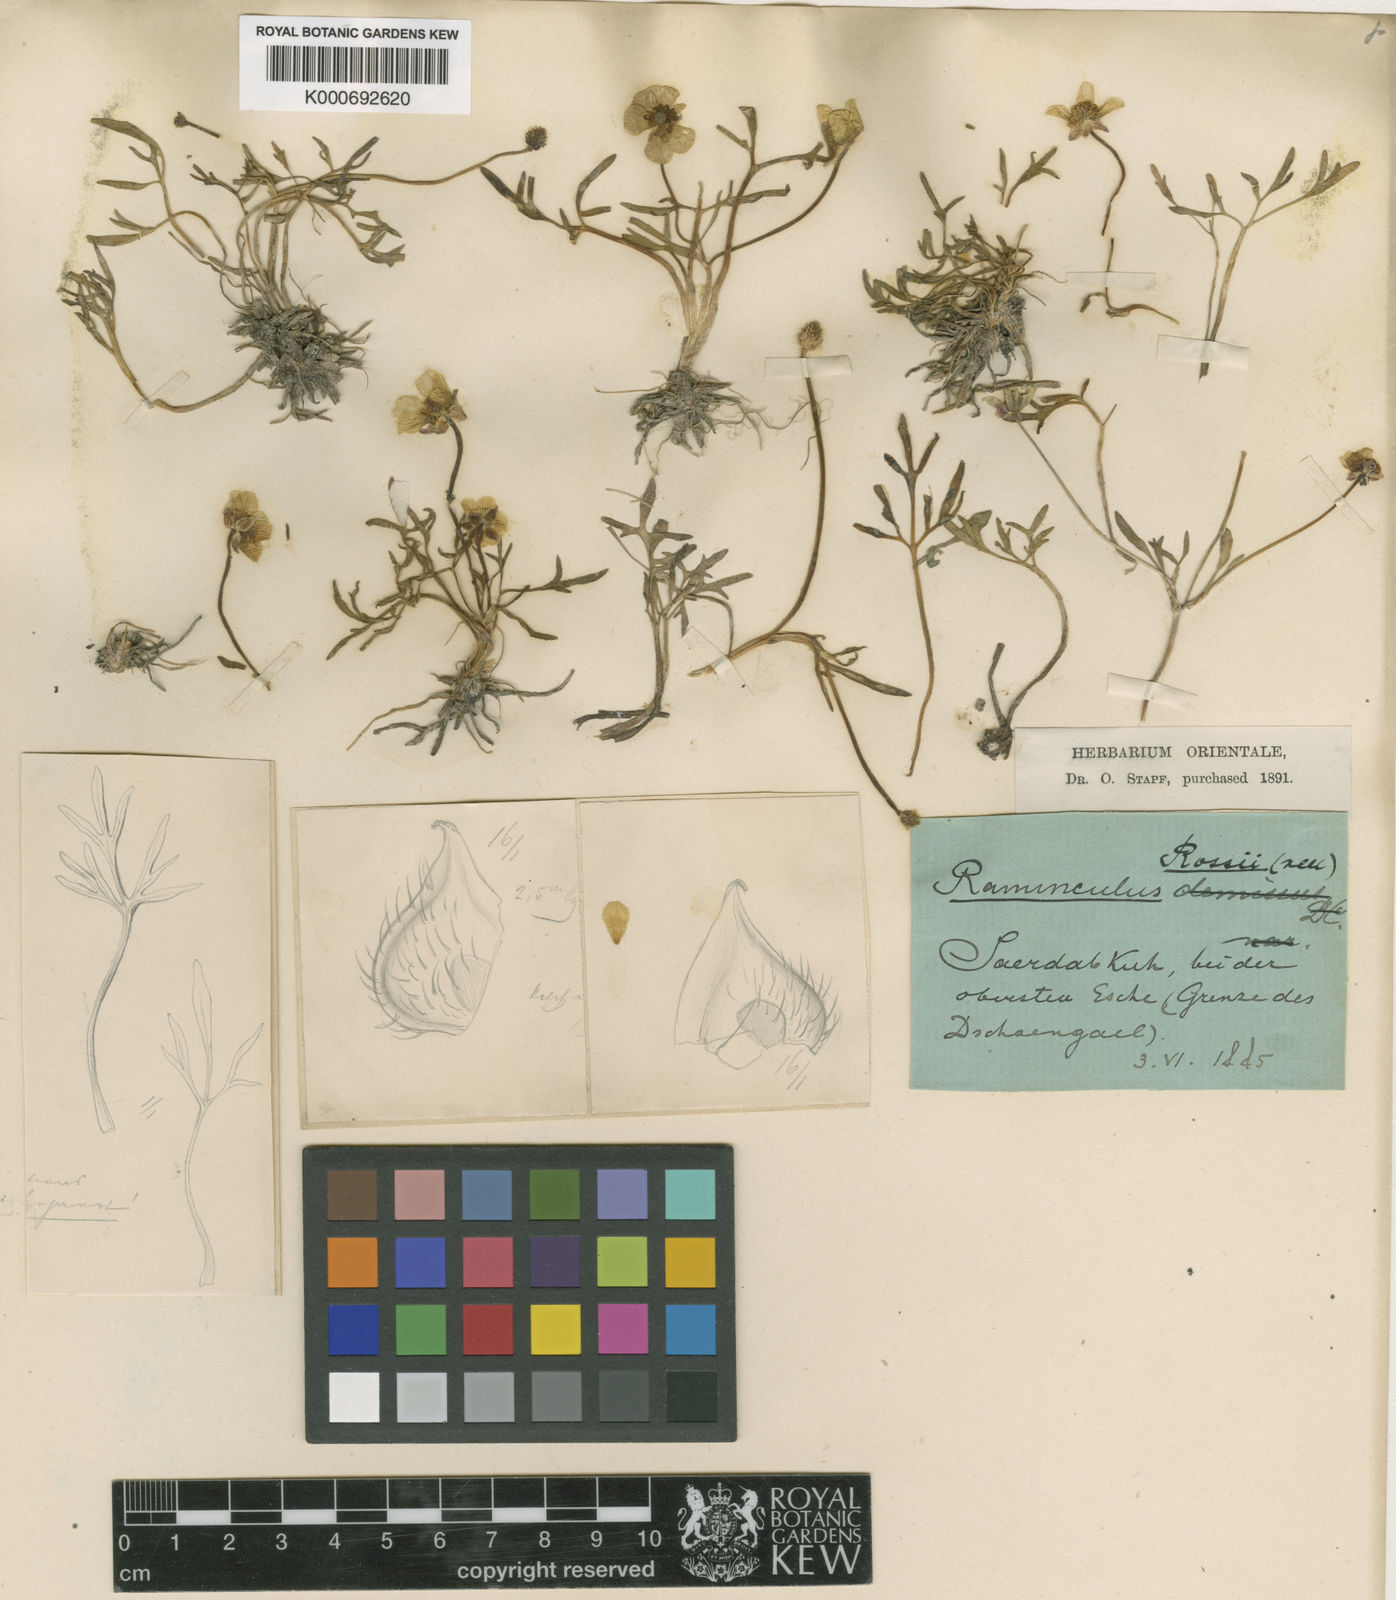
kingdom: Plantae
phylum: Tracheophyta
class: Magnoliopsida
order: Ranunculales
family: Ranunculaceae
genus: Ranunculus
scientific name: Ranunculus
